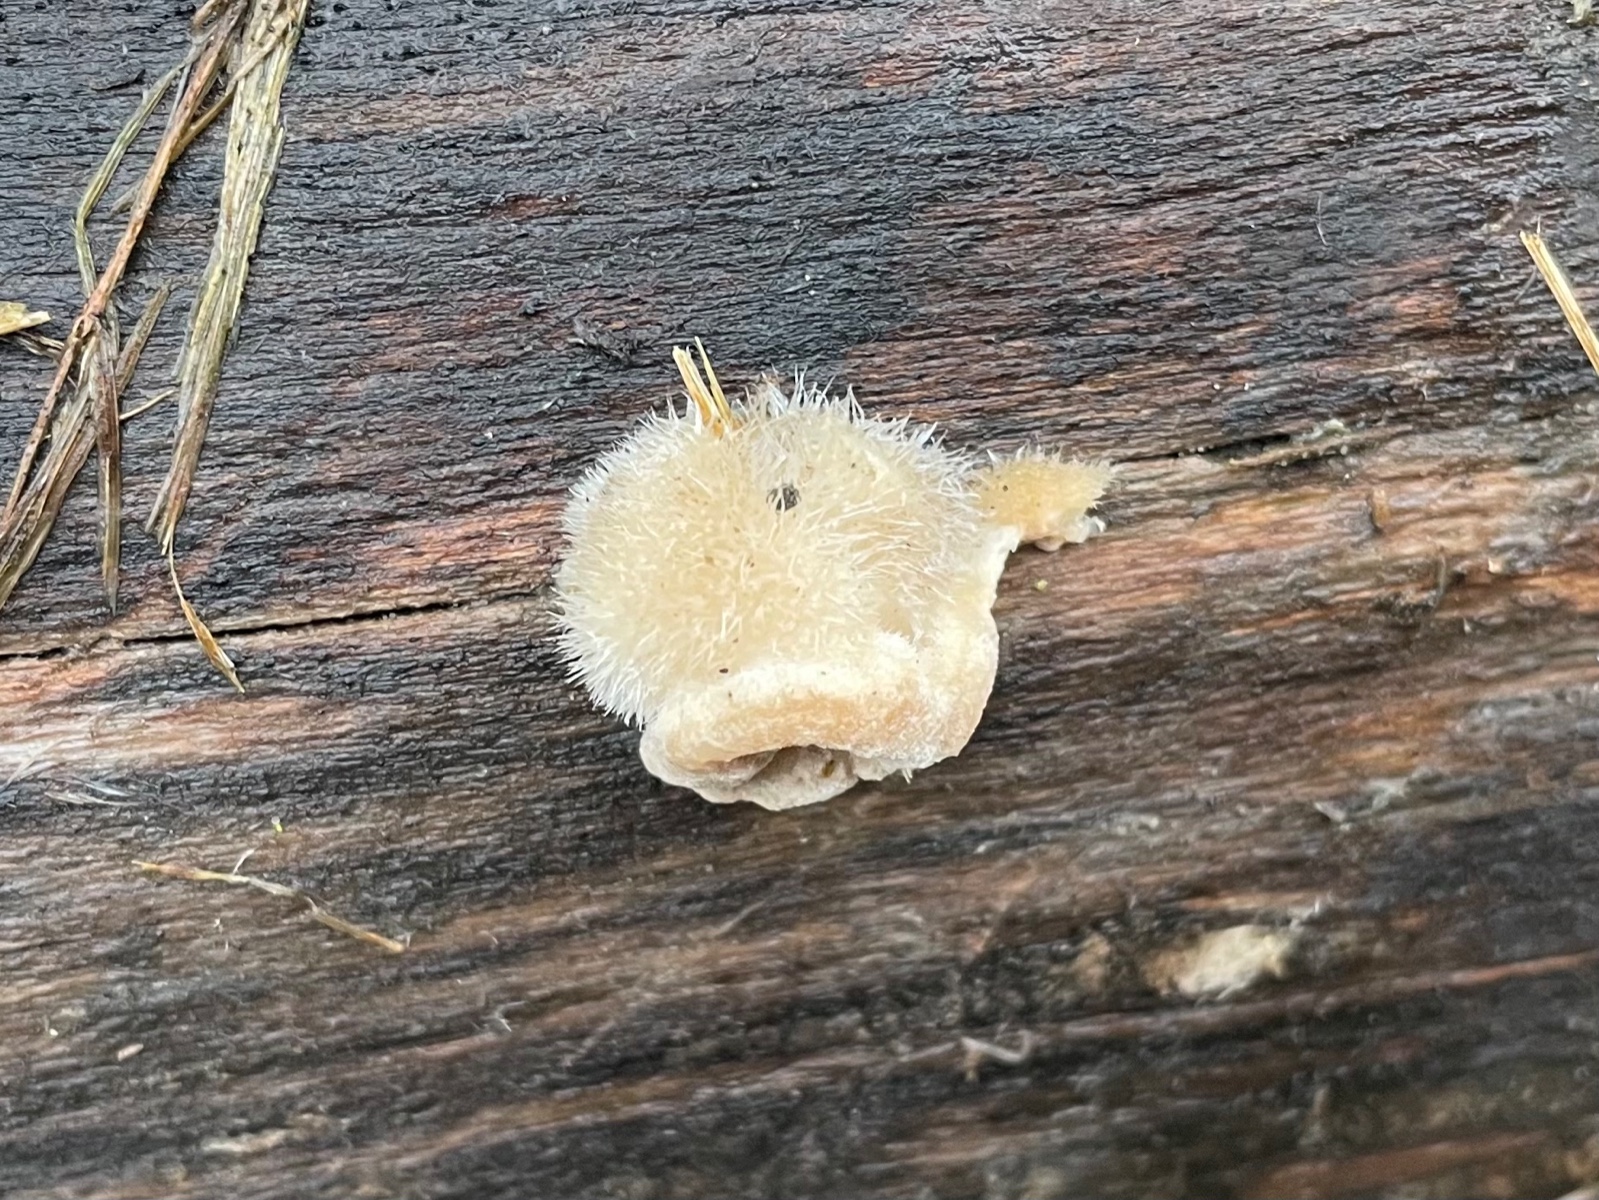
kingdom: Fungi
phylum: Basidiomycota
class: Agaricomycetes
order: Polyporales
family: Polyporaceae
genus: Trametes
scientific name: Trametes hirsuta
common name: håret læderporesvamp
